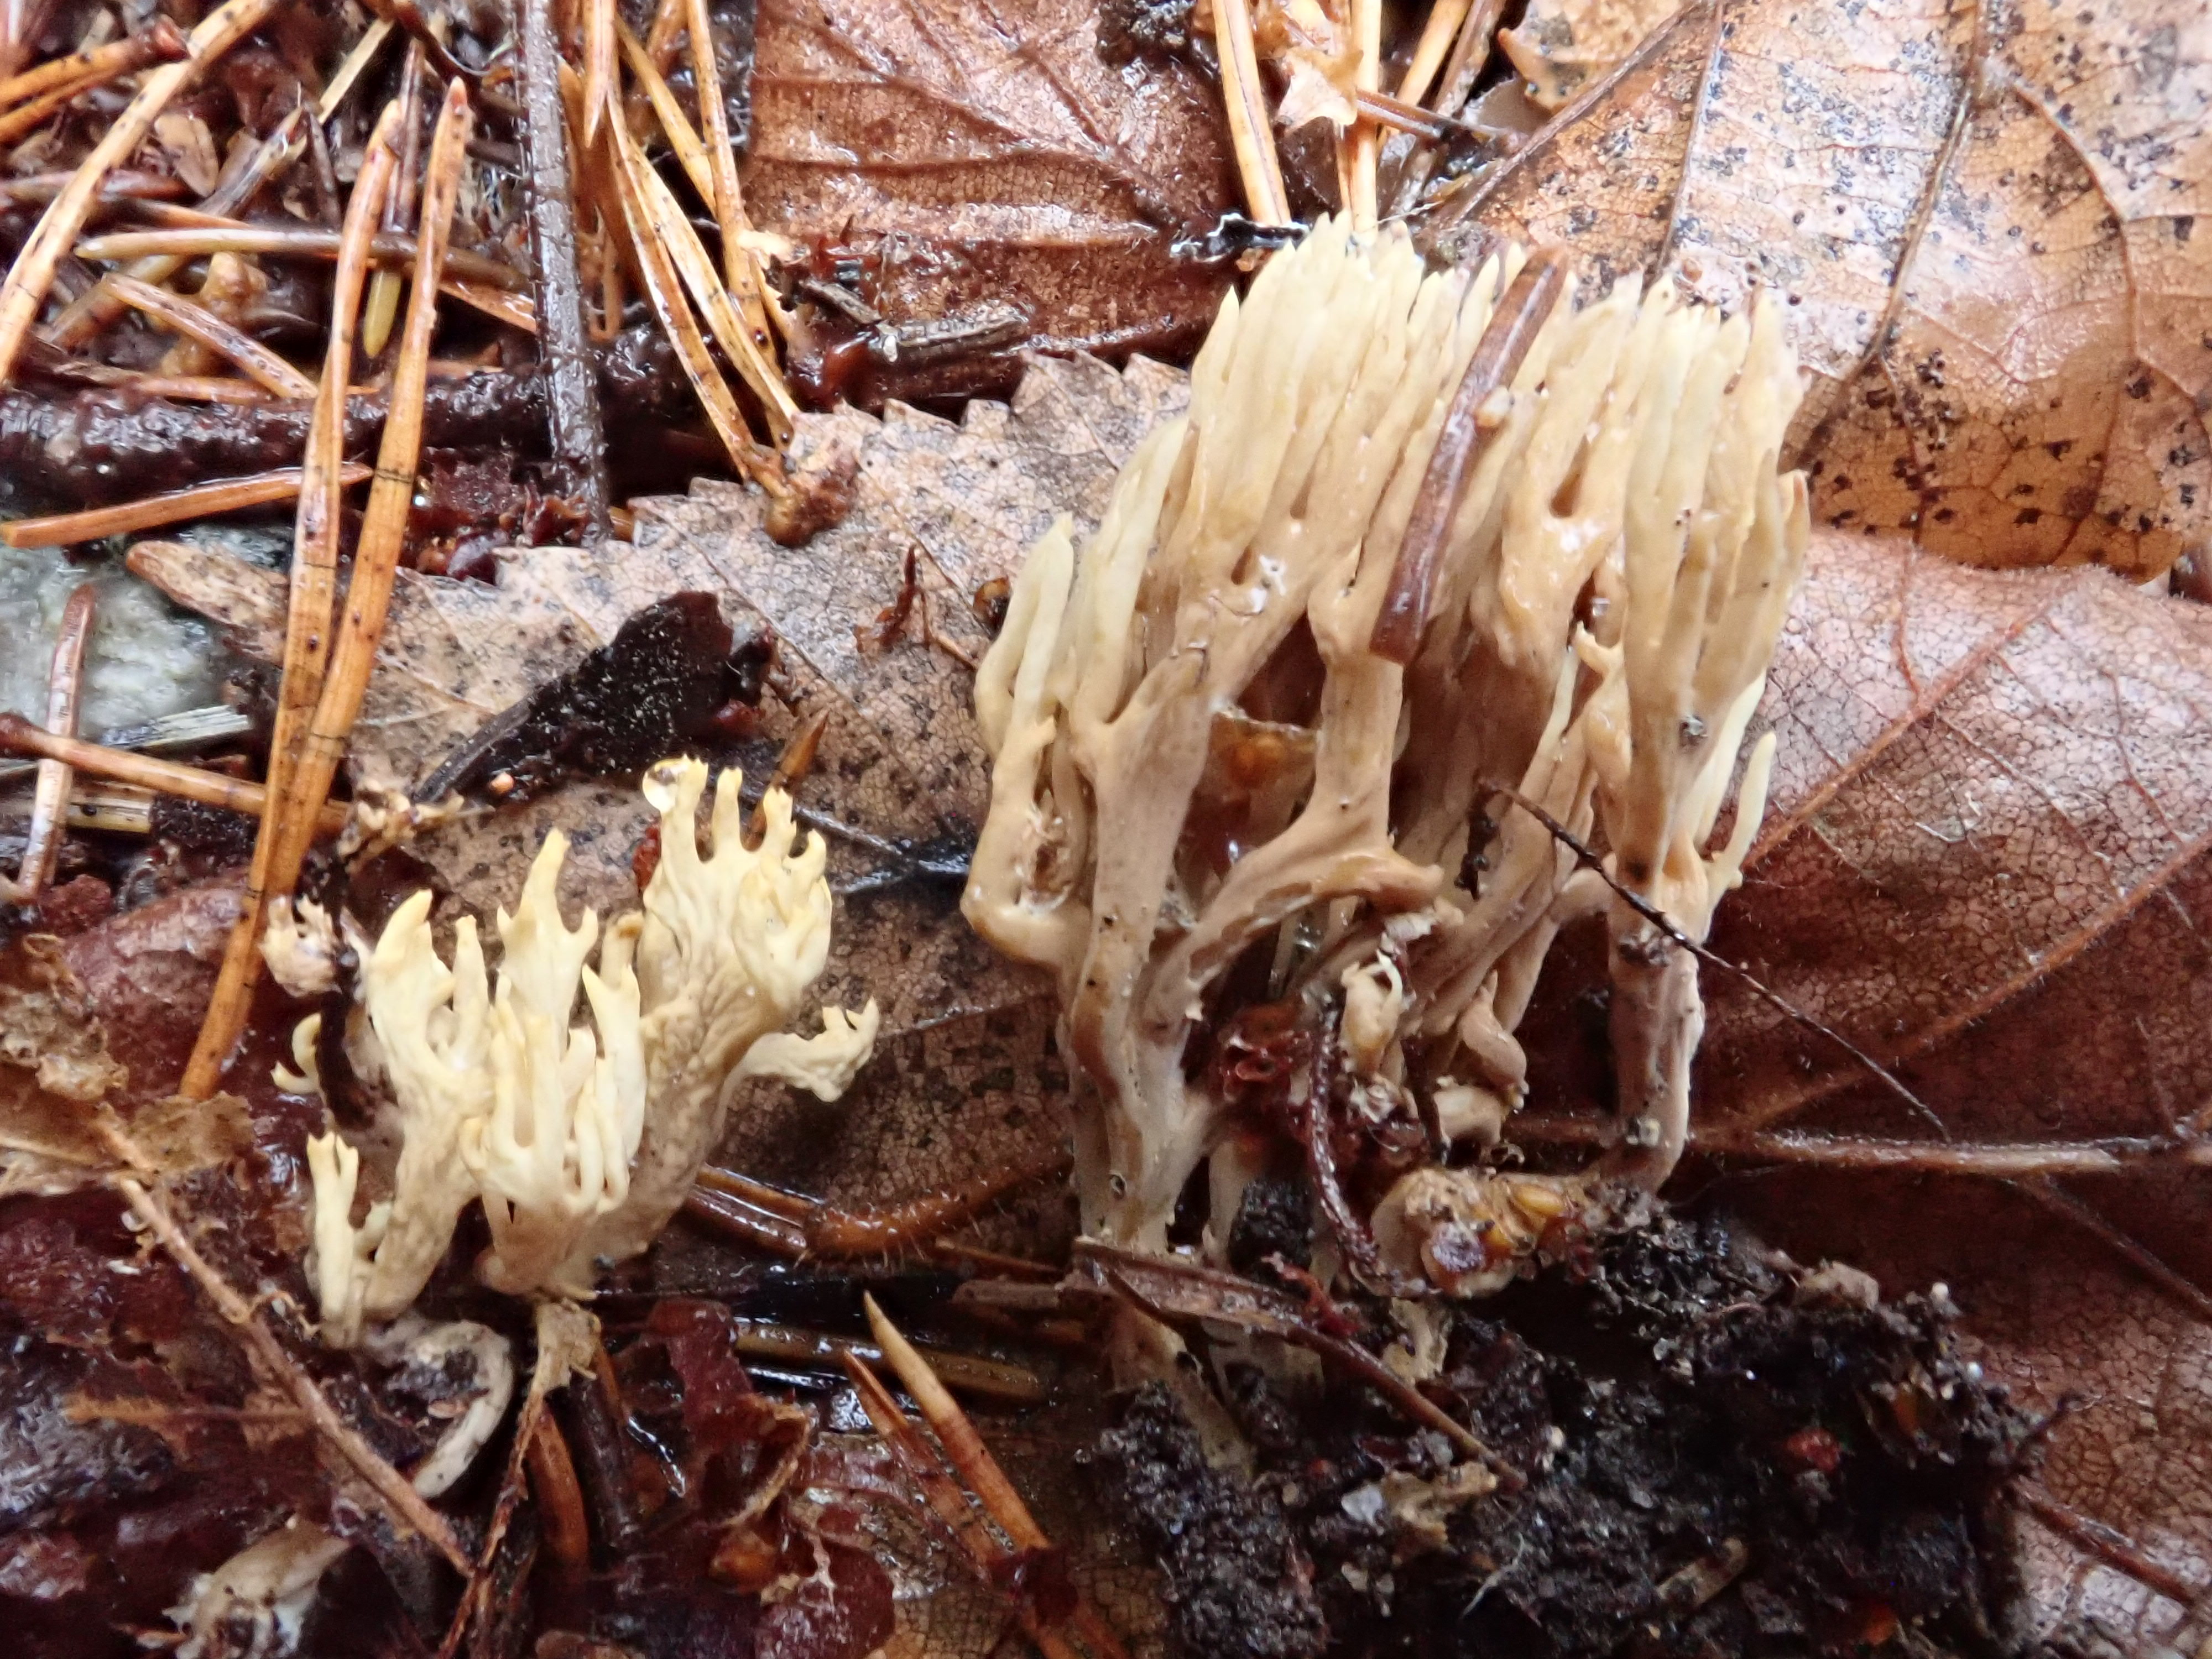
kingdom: Fungi
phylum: Basidiomycota
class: Agaricomycetes
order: Gomphales
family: Gomphaceae
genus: Phaeoclavulina
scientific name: Phaeoclavulina
